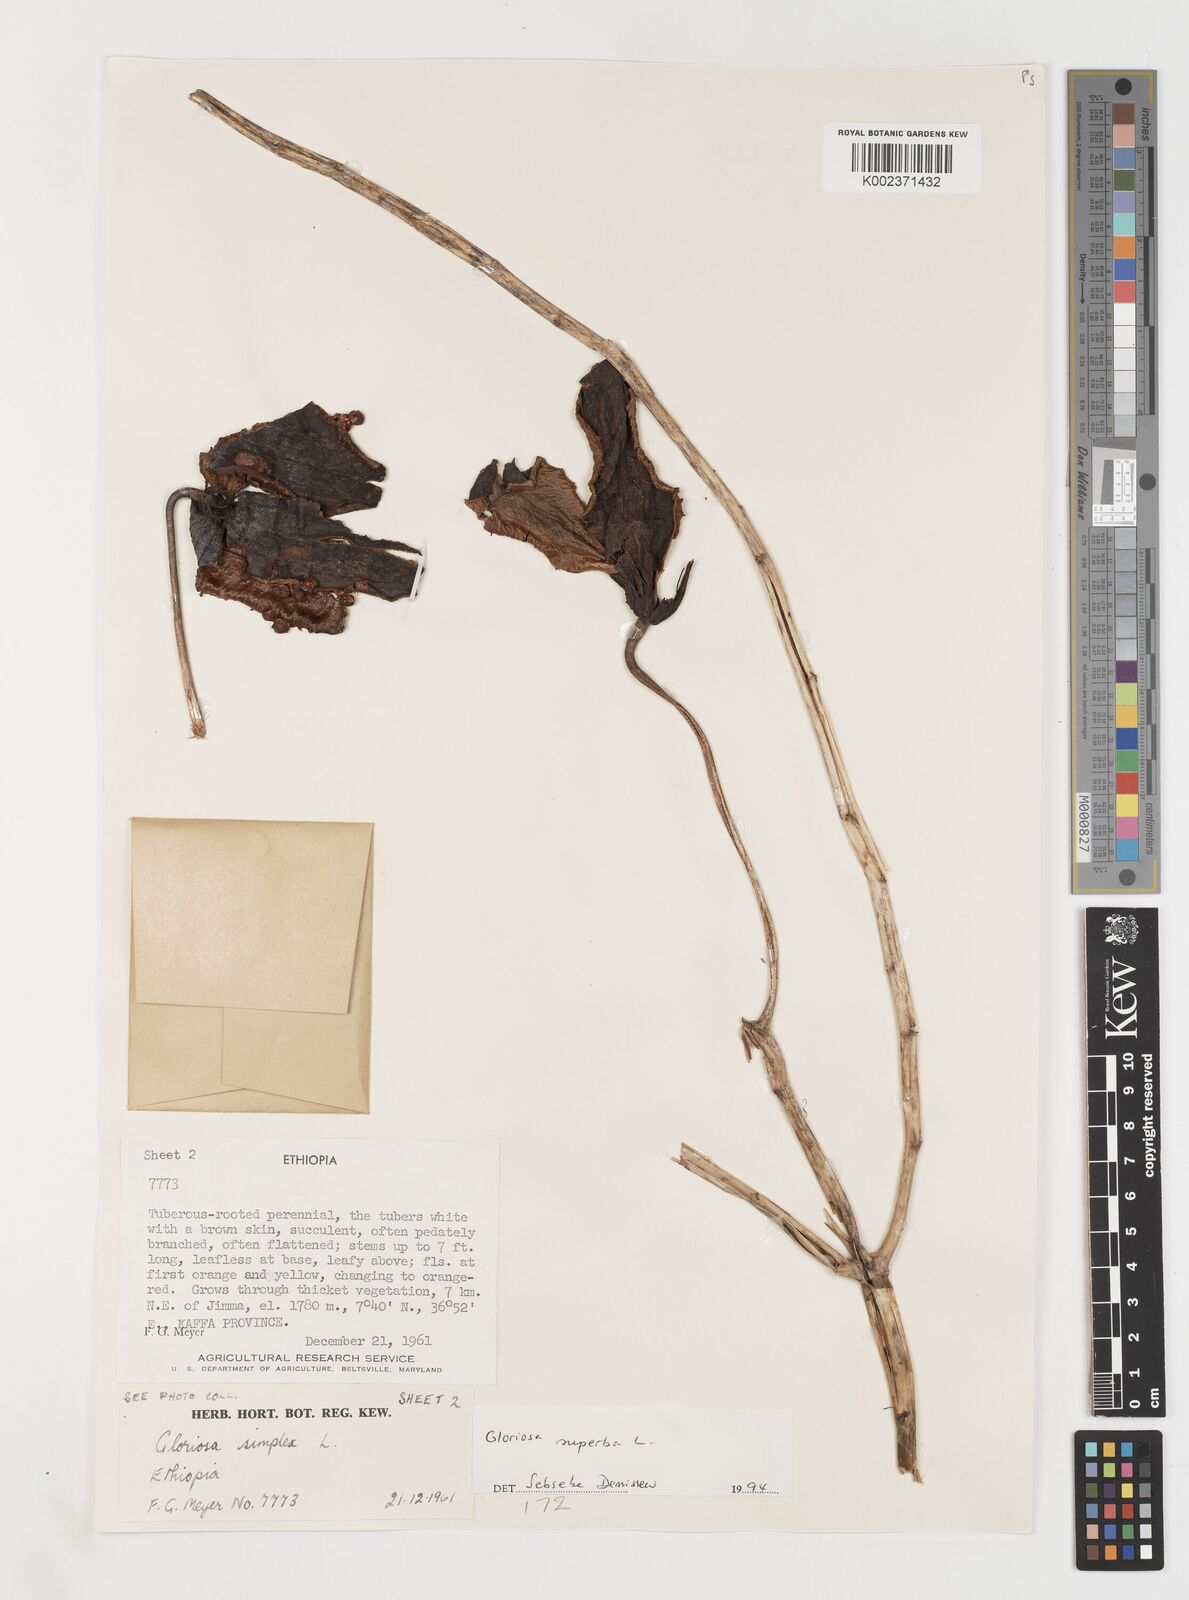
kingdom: Plantae
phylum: Tracheophyta
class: Liliopsida
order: Liliales
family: Colchicaceae
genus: Gloriosa
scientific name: Gloriosa simplex
